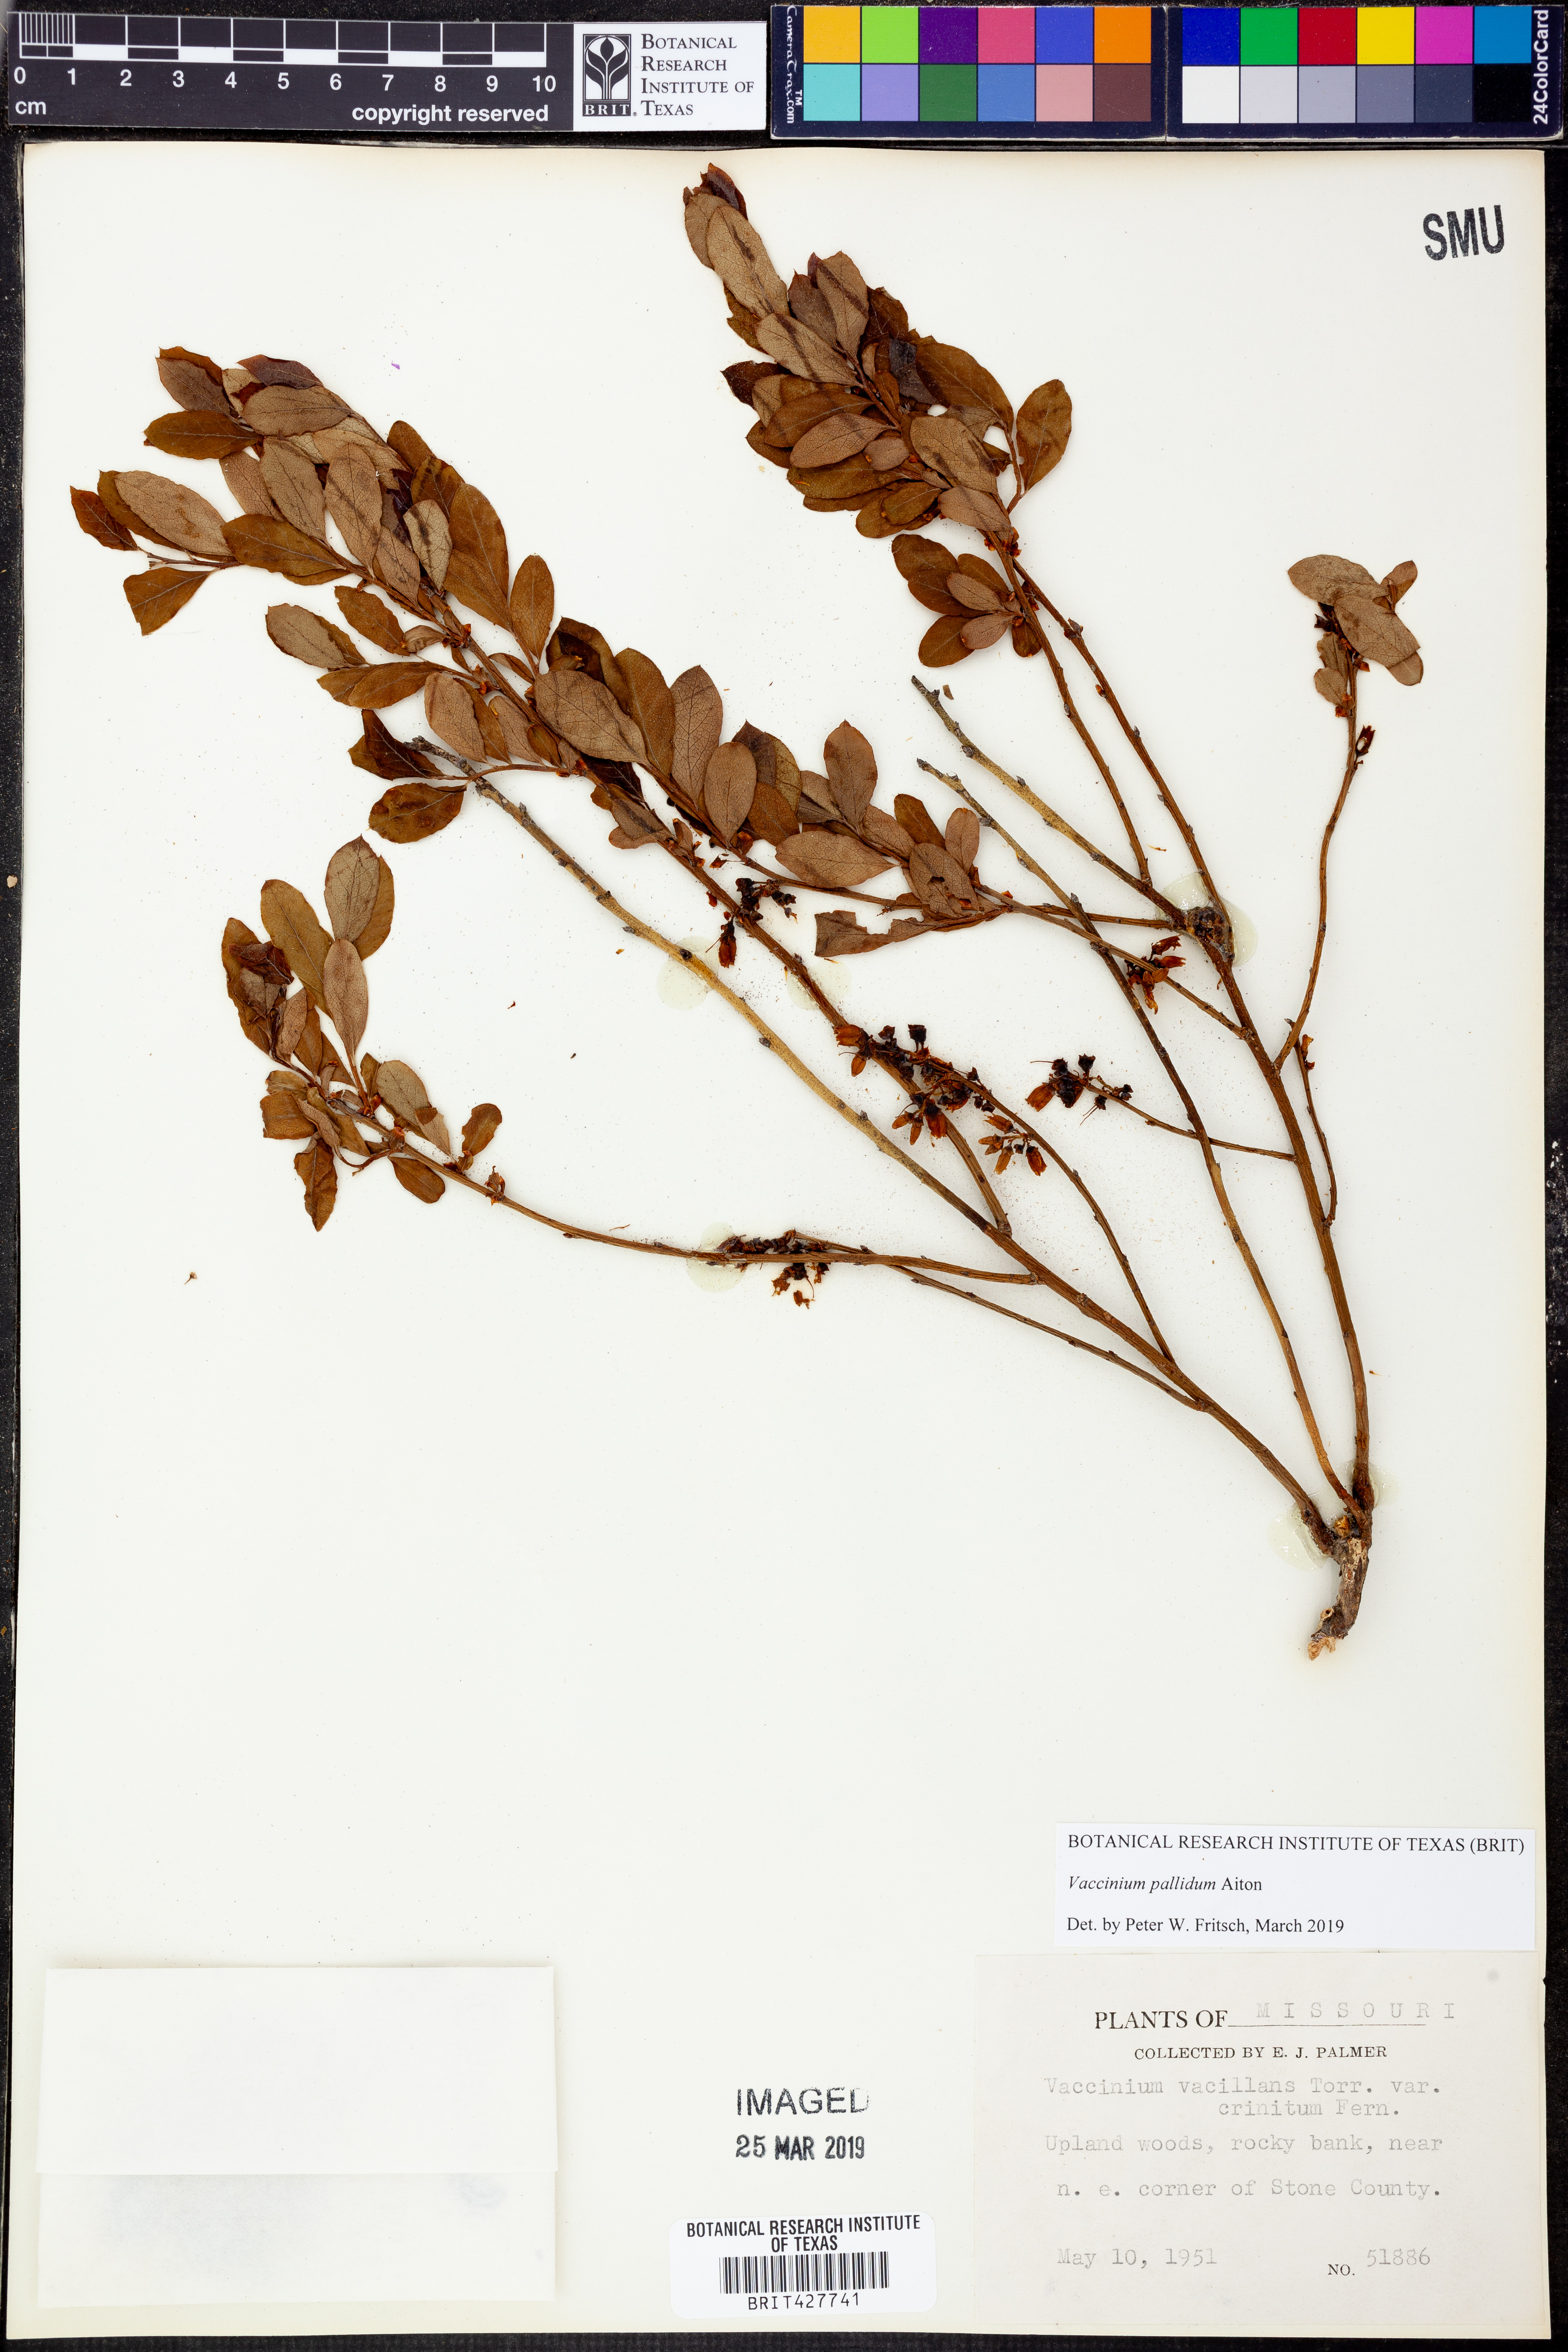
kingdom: Plantae
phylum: Tracheophyta
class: Magnoliopsida
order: Ericales
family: Ericaceae
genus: Vaccinium
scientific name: Vaccinium pallidum
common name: Blue ridge blueberry
